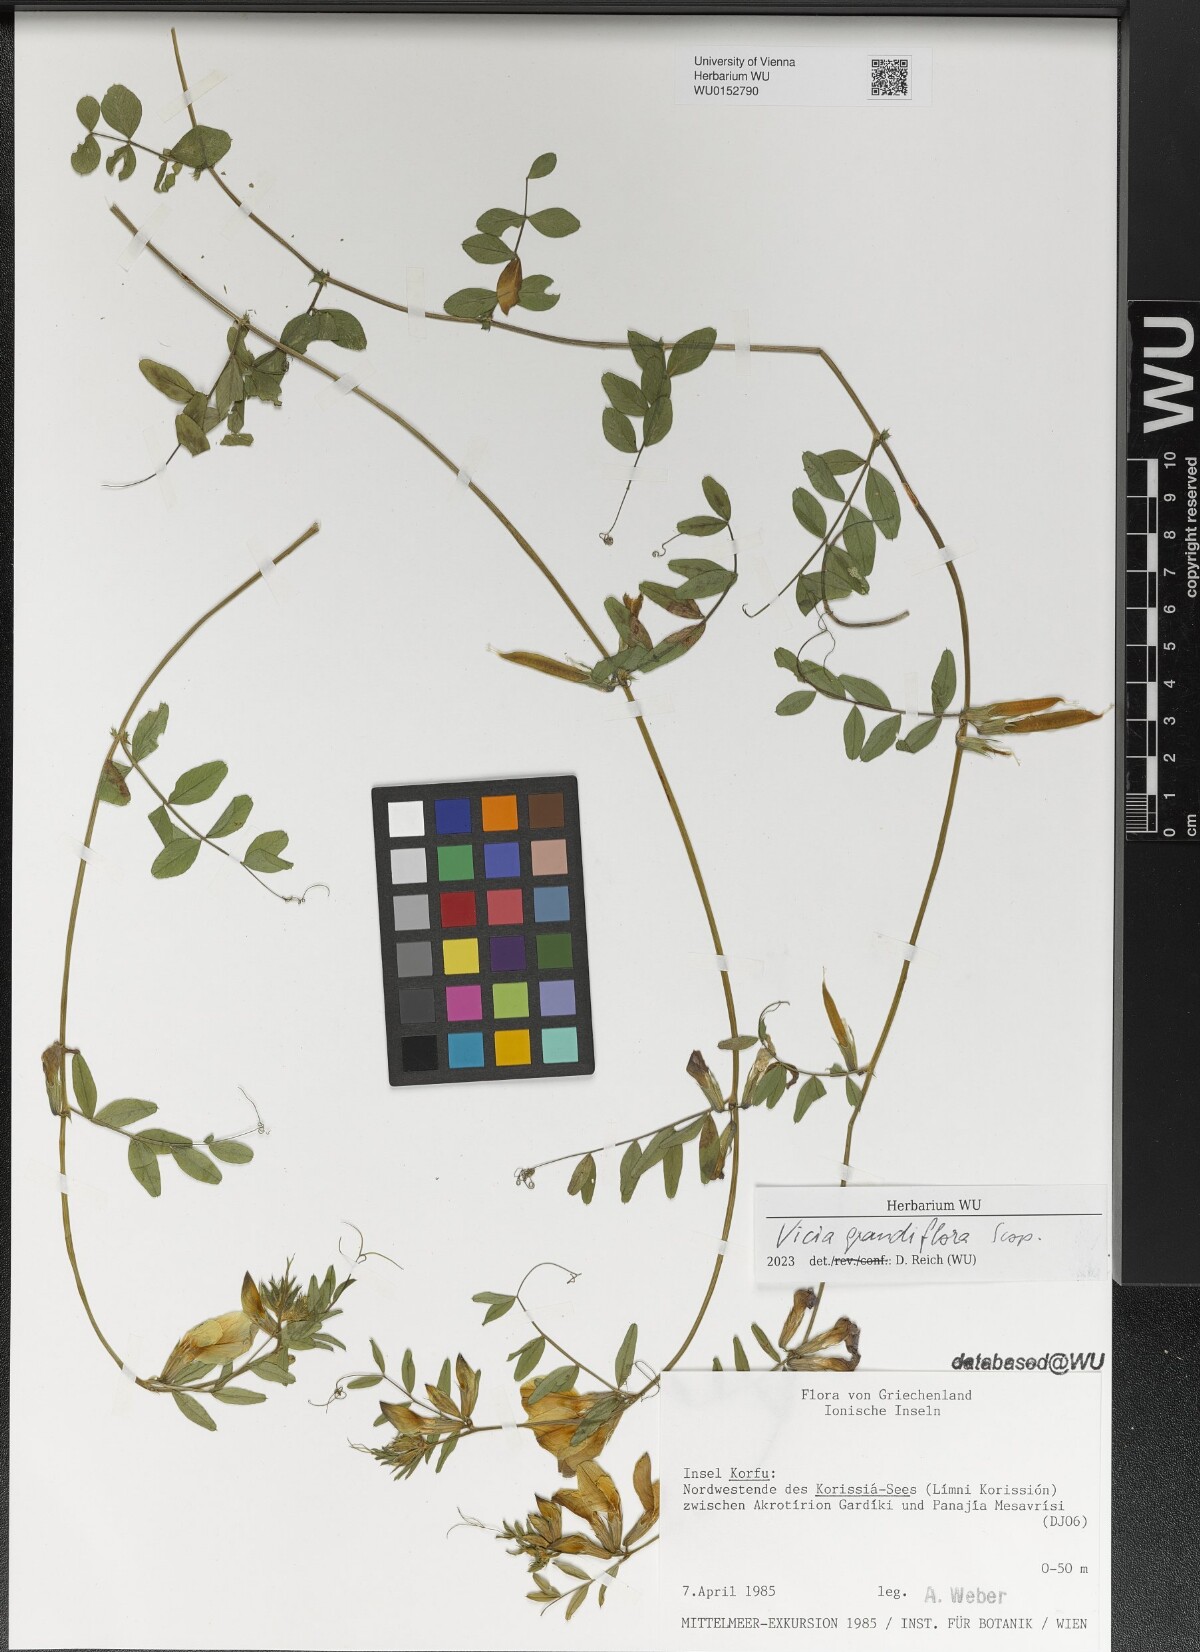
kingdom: Plantae
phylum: Tracheophyta
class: Magnoliopsida
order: Fabales
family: Fabaceae
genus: Vicia
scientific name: Vicia grandiflora
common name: Large yellow vetch
